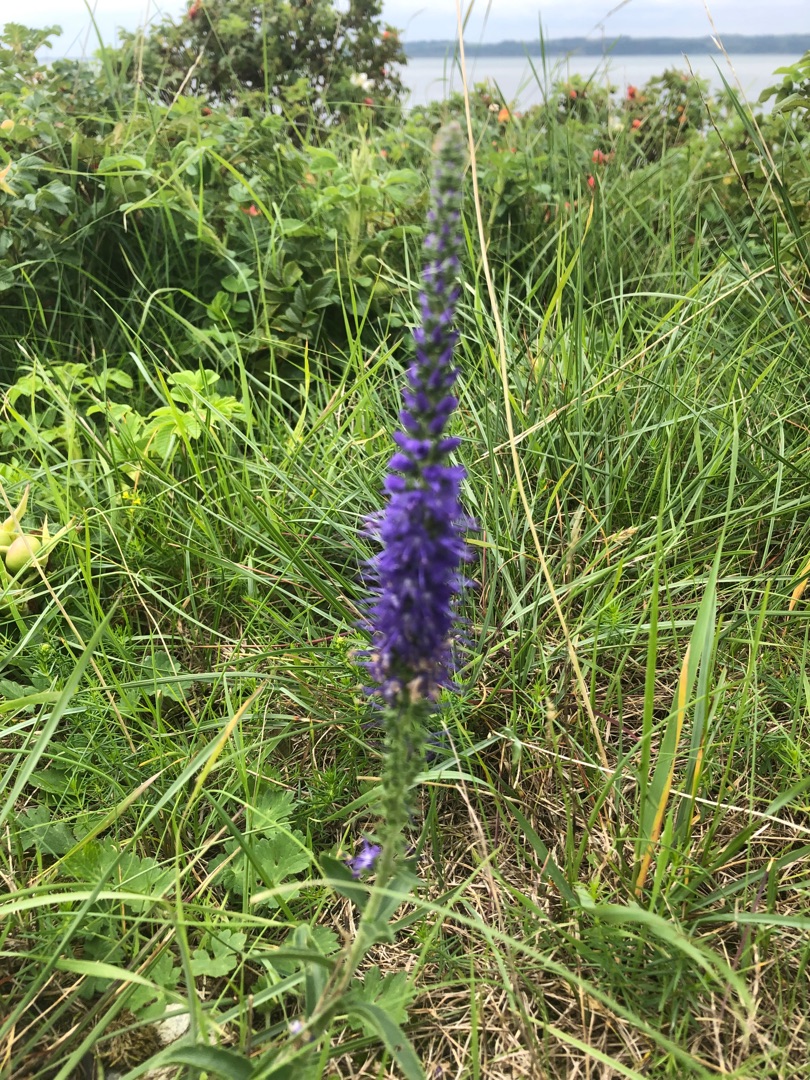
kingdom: Plantae
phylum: Tracheophyta
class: Magnoliopsida
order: Lamiales
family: Plantaginaceae
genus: Veronica
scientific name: Veronica spicata
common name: Aks-ærenpris
